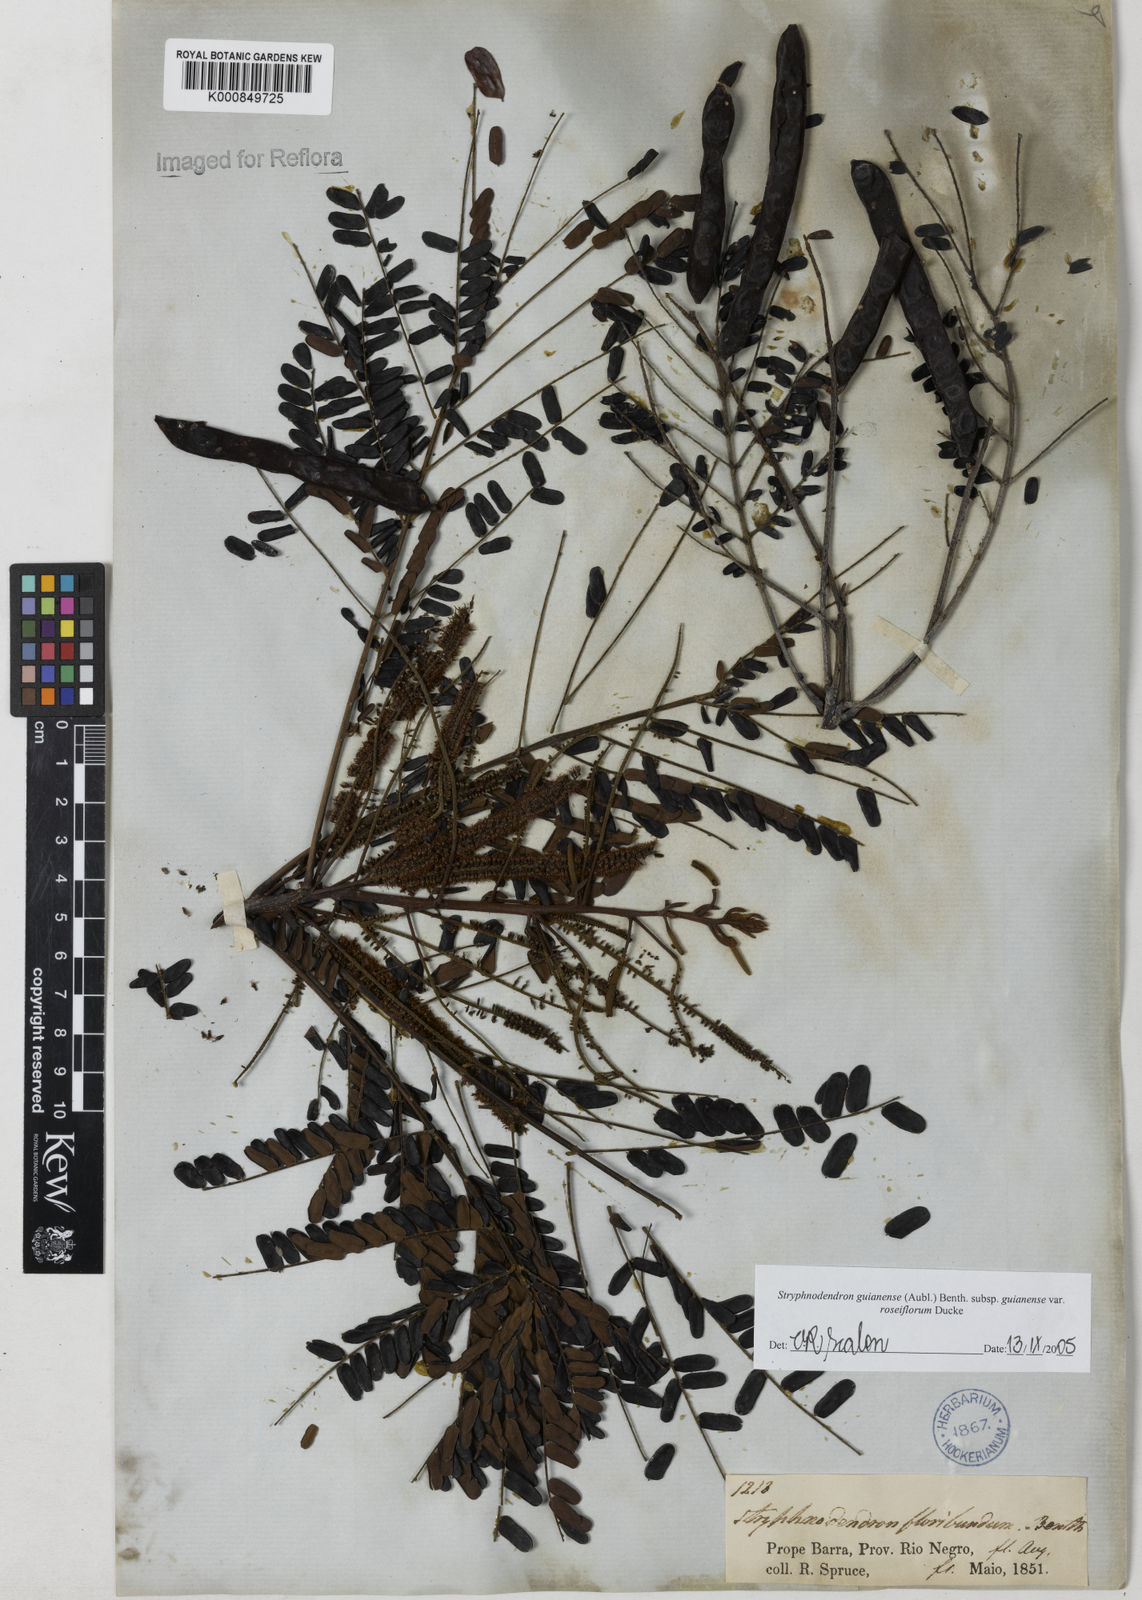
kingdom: Plantae
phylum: Tracheophyta
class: Magnoliopsida
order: Fabales
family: Fabaceae
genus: Stryphnodendron
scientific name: Stryphnodendron guianense
